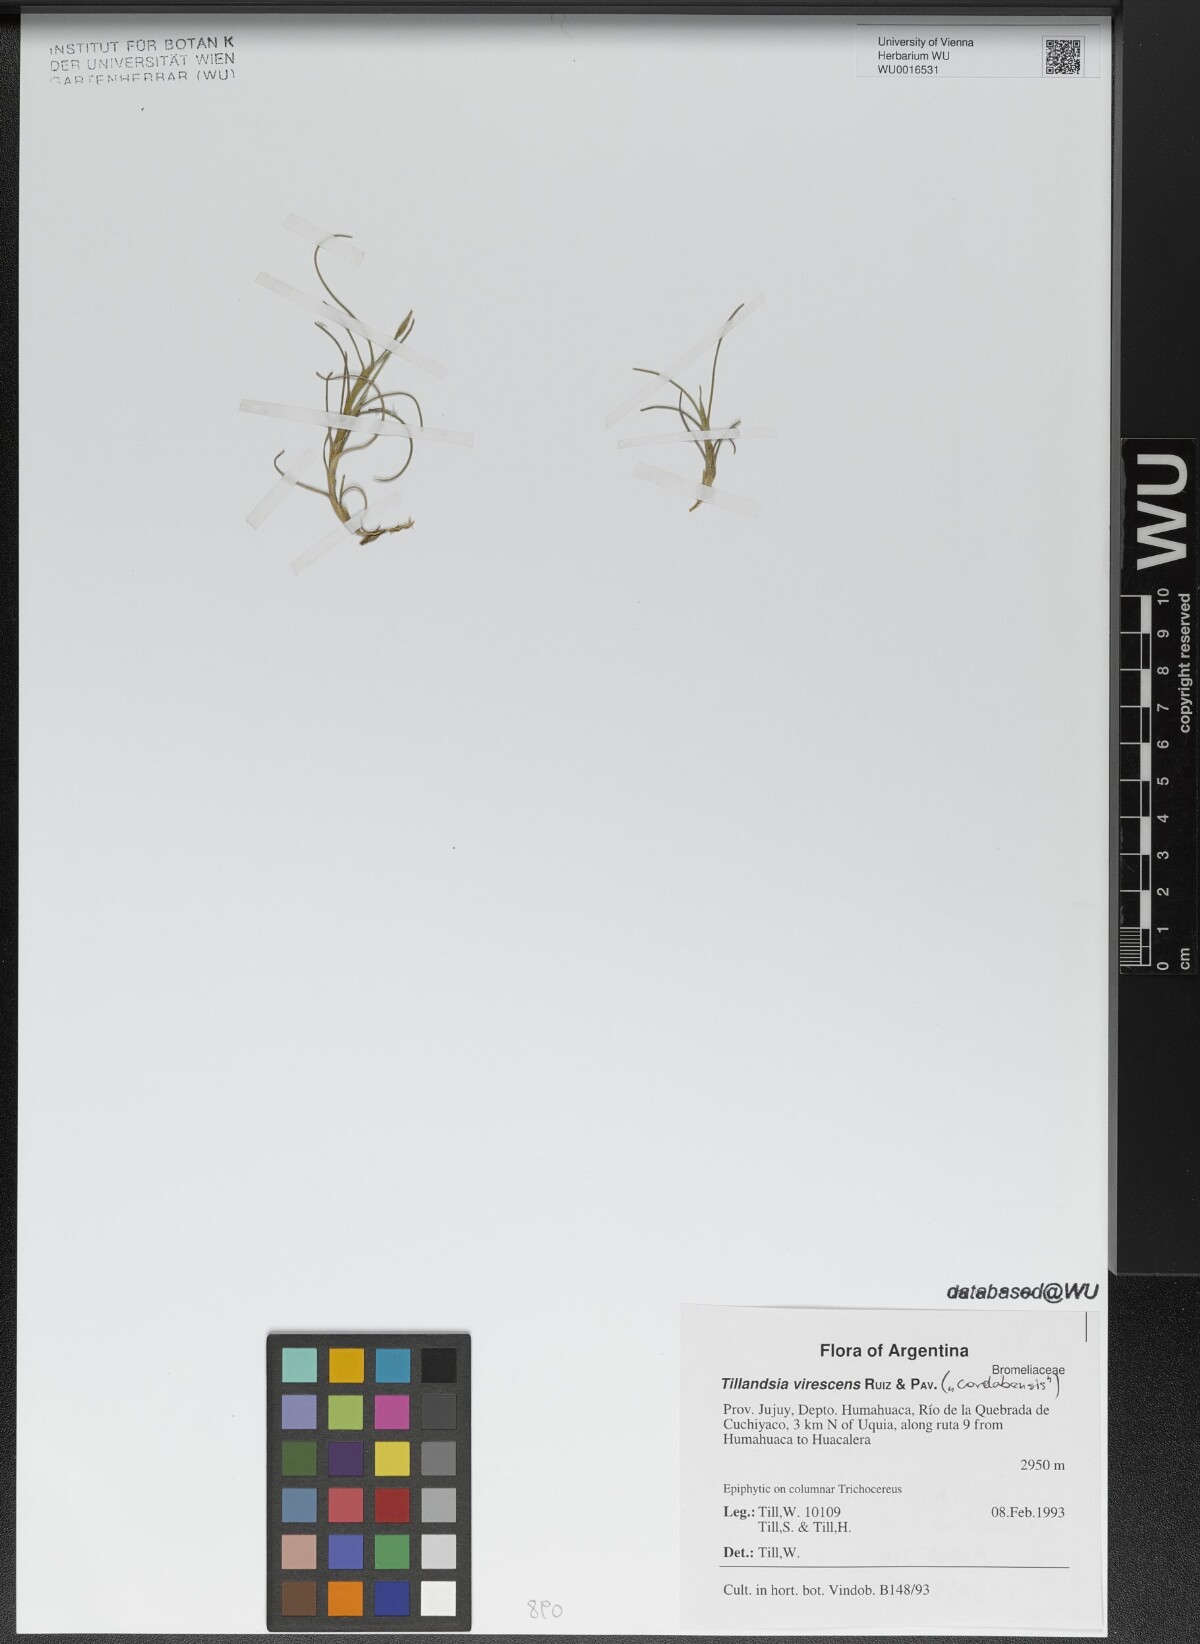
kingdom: Plantae
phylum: Tracheophyta
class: Liliopsida
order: Poales
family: Bromeliaceae
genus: Tillandsia
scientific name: Tillandsia virescens
